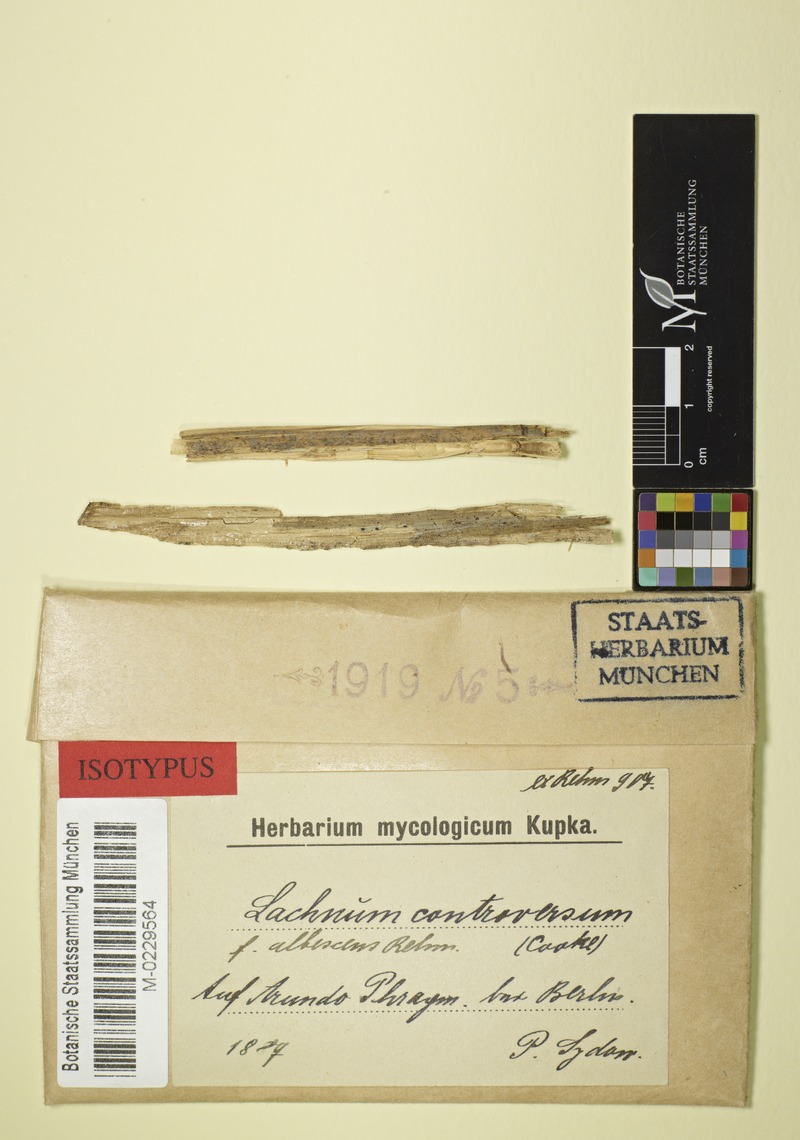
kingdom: Fungi
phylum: Ascomycota
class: Leotiomycetes
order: Helotiales
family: Lachnaceae
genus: Lachnum
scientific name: Lachnum controversum
